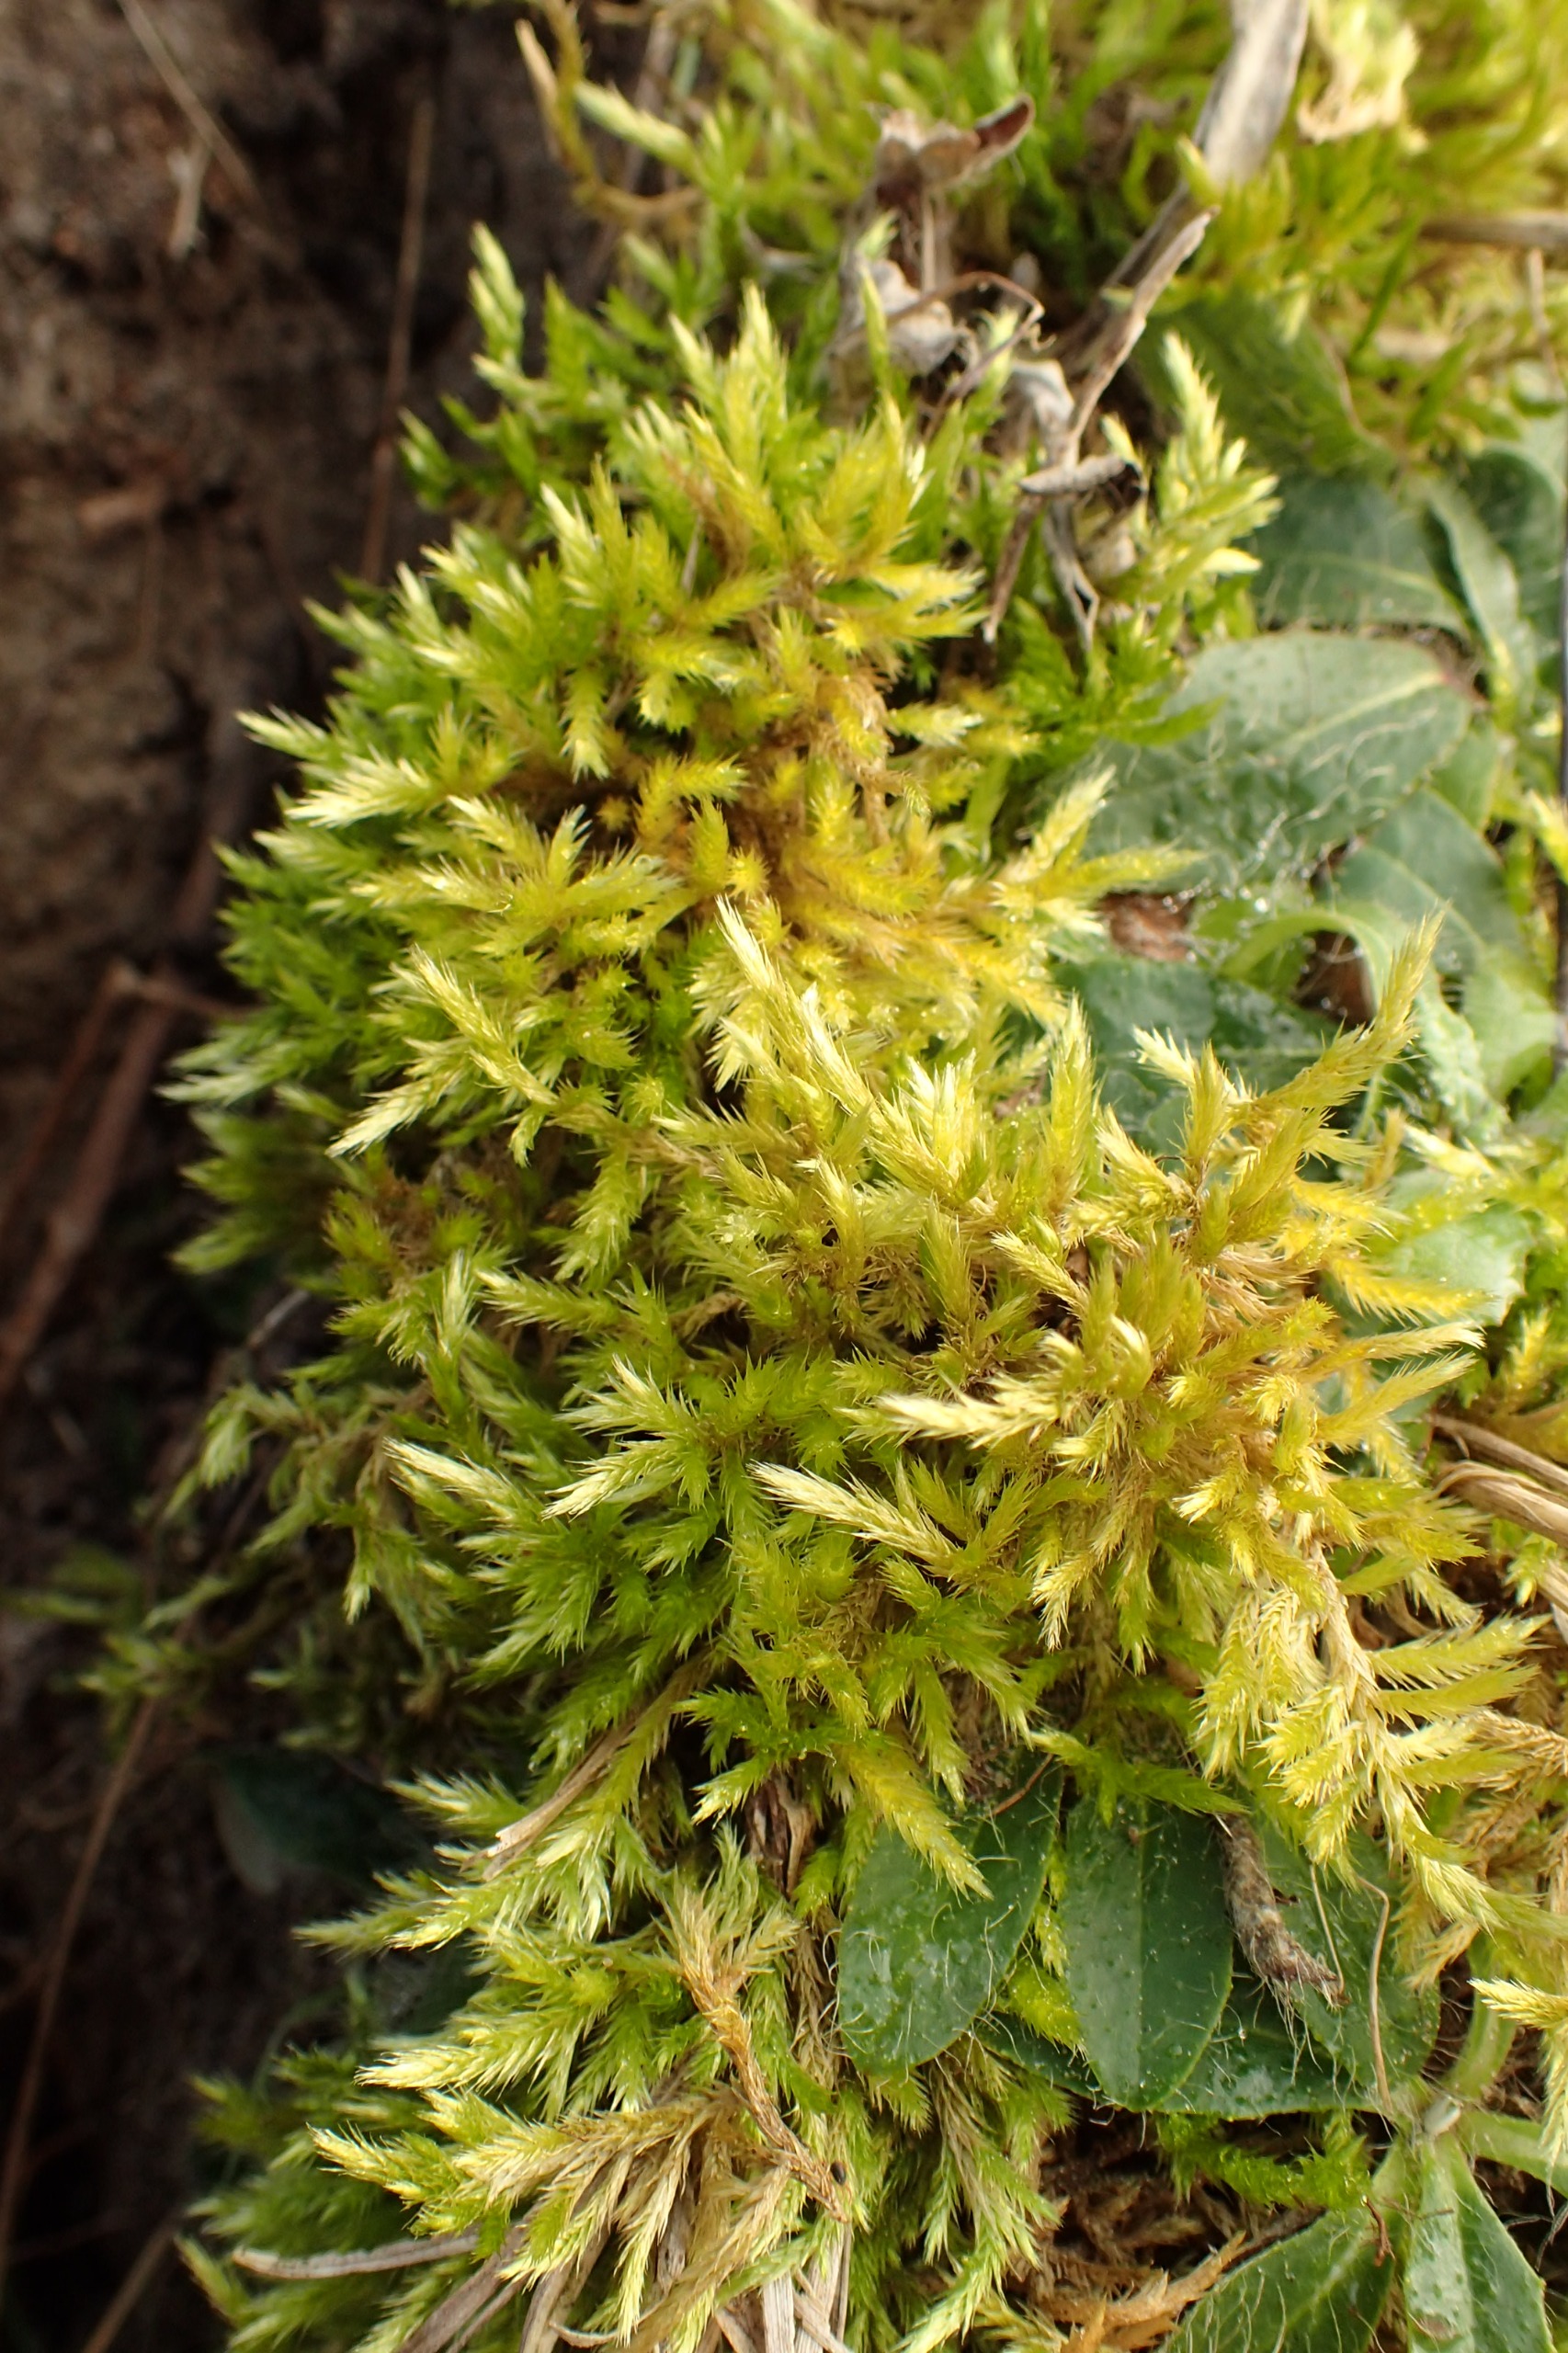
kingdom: Plantae
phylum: Bryophyta
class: Bryopsida
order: Hypnales
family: Brachytheciaceae
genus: Homalothecium
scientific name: Homalothecium lutescens
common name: Gul krumkapsel
